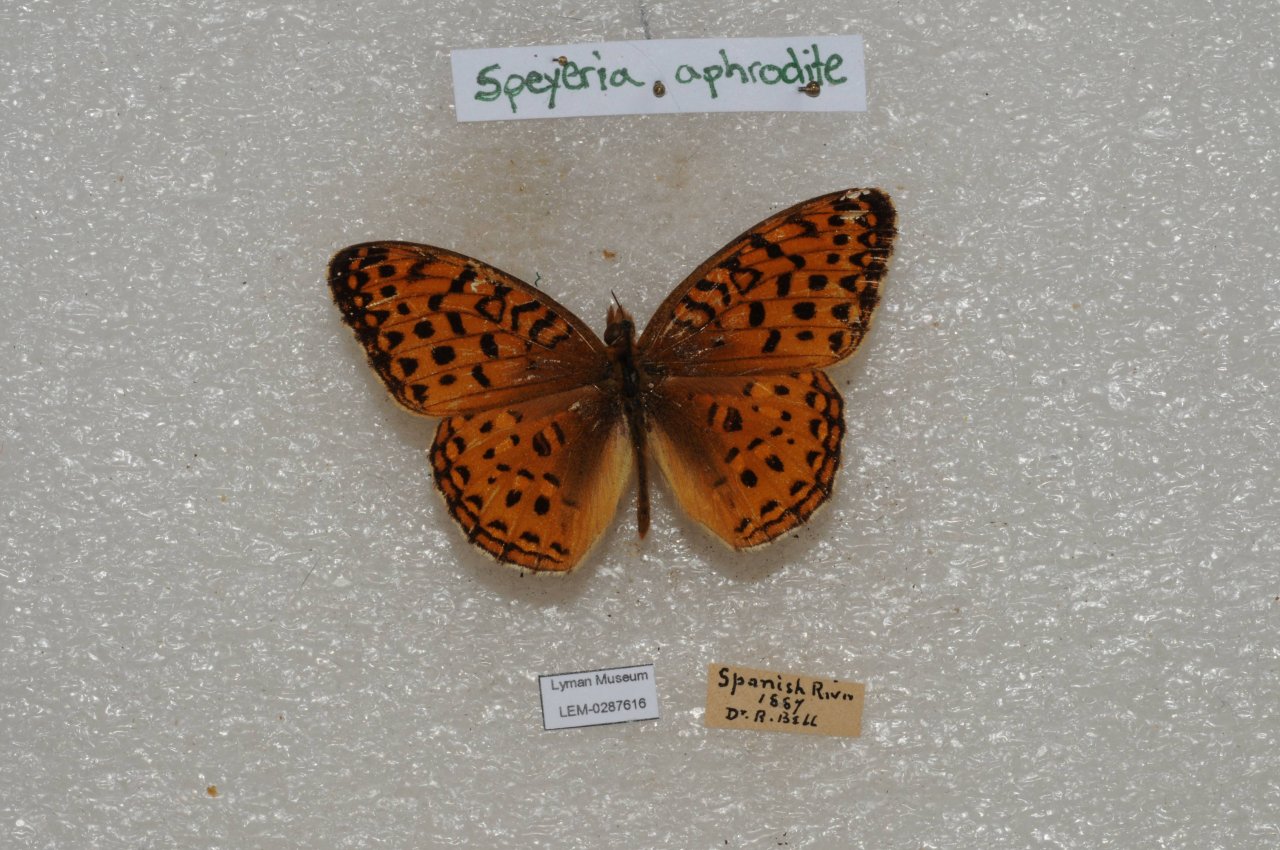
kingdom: Animalia
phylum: Arthropoda
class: Insecta
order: Lepidoptera
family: Nymphalidae
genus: Speyeria
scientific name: Speyeria aphrodite
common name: Aphrodite Fritillary
